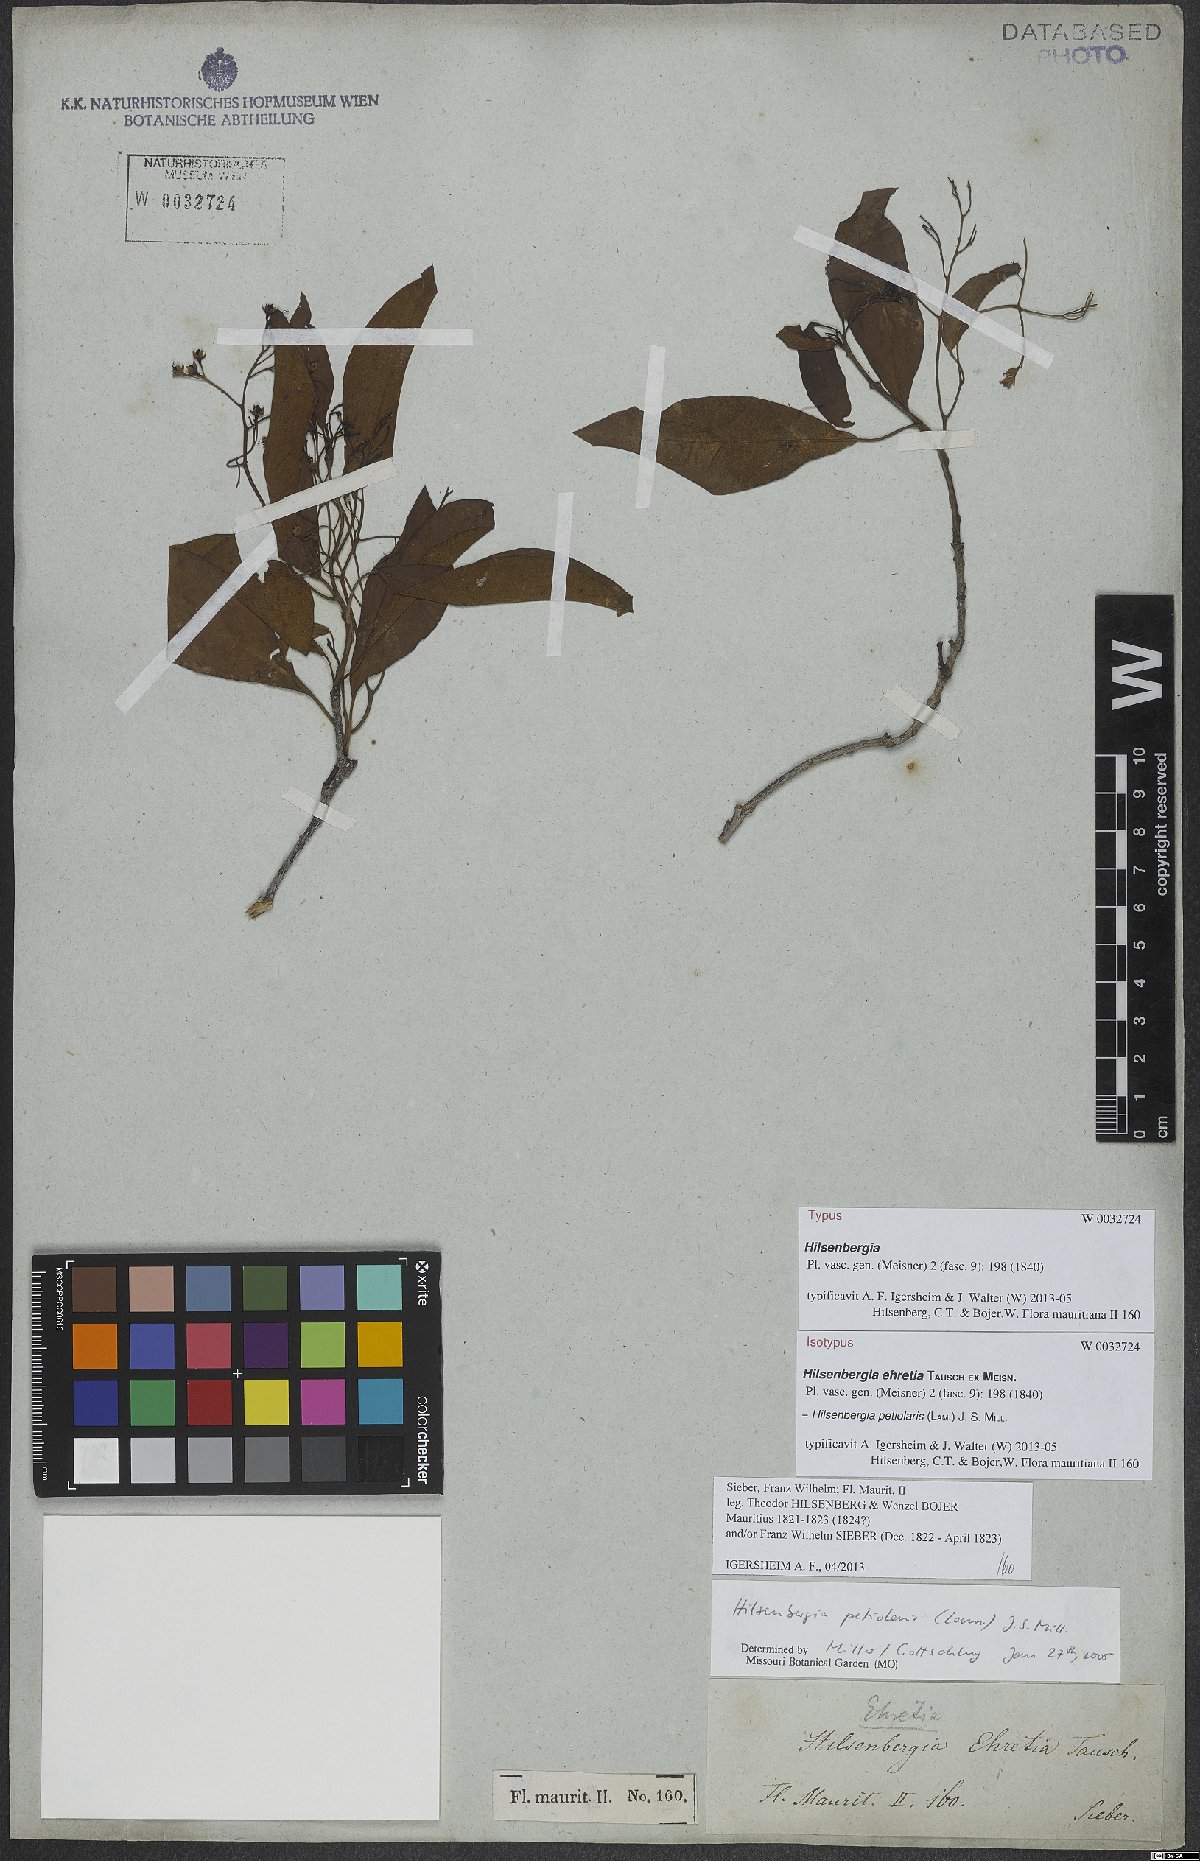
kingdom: Plantae
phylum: Tracheophyta
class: Magnoliopsida
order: Boraginales
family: Ehretiaceae
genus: Bourreria
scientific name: Bourreria petiolaris
